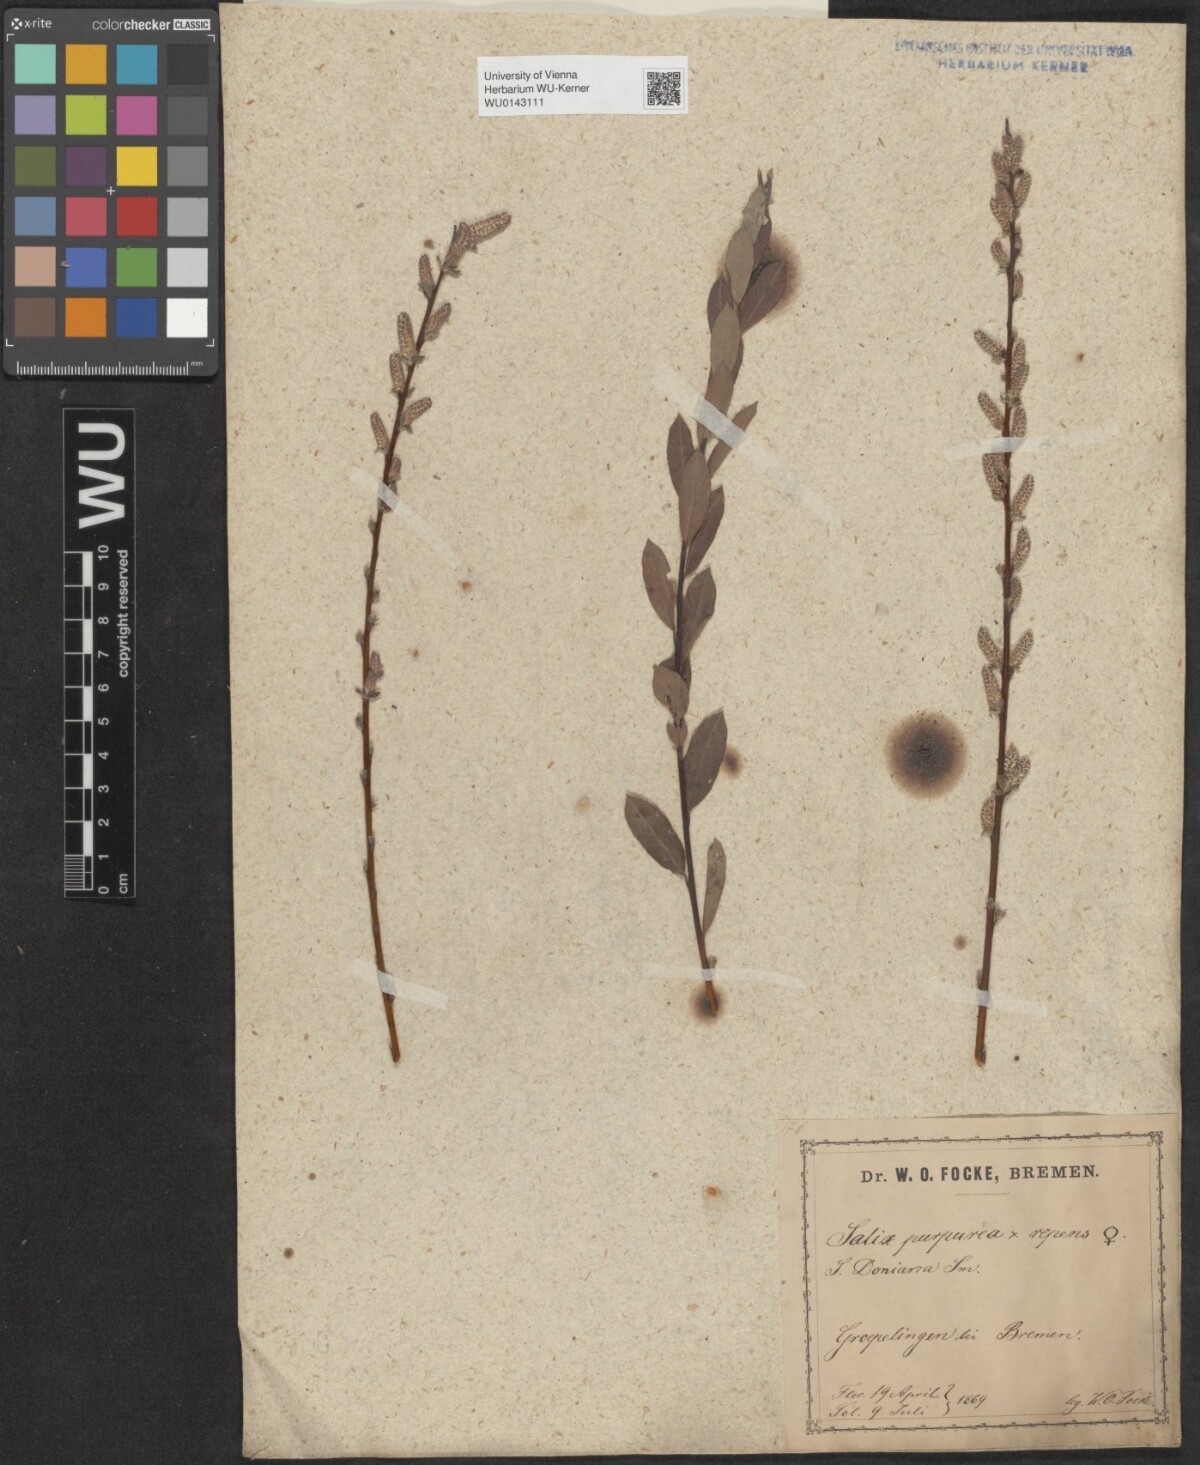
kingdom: Plantae
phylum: Tracheophyta
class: Magnoliopsida
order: Malpighiales
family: Salicaceae
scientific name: Salicaceae
